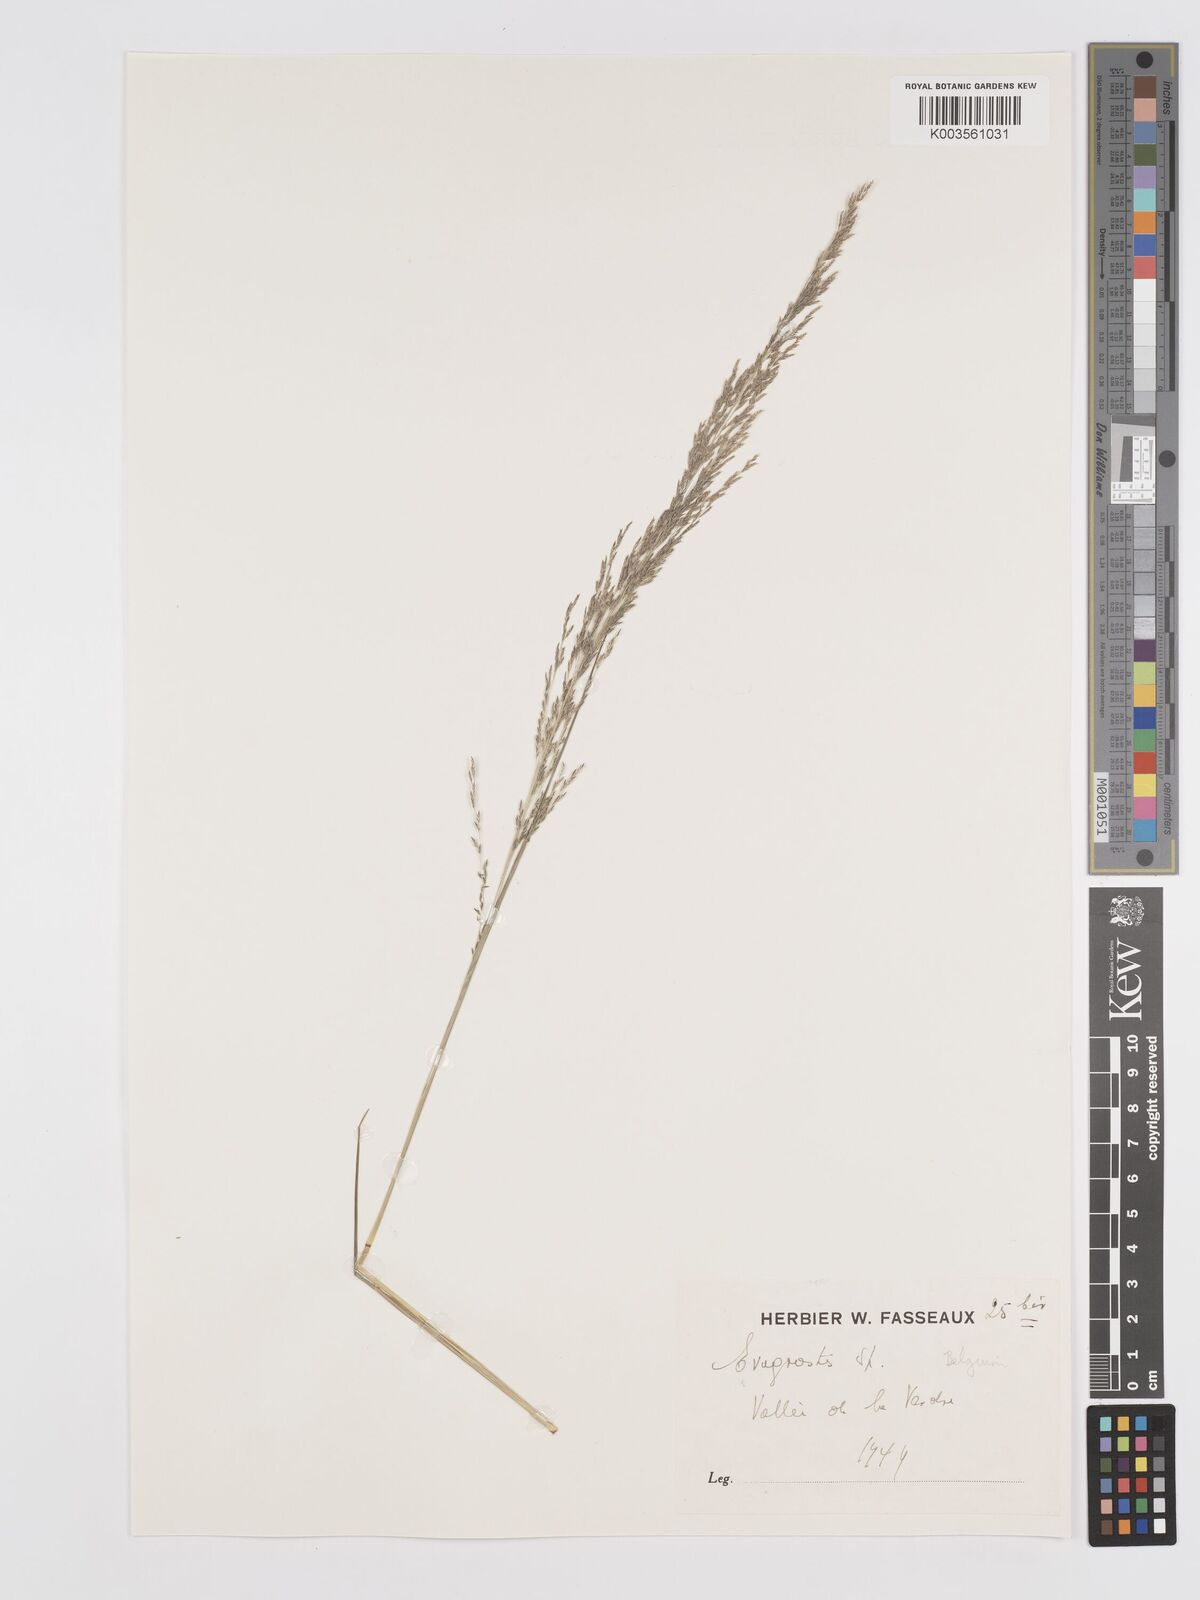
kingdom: Plantae
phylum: Tracheophyta
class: Liliopsida
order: Poales
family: Poaceae
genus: Eragrostis
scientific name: Eragrostis
